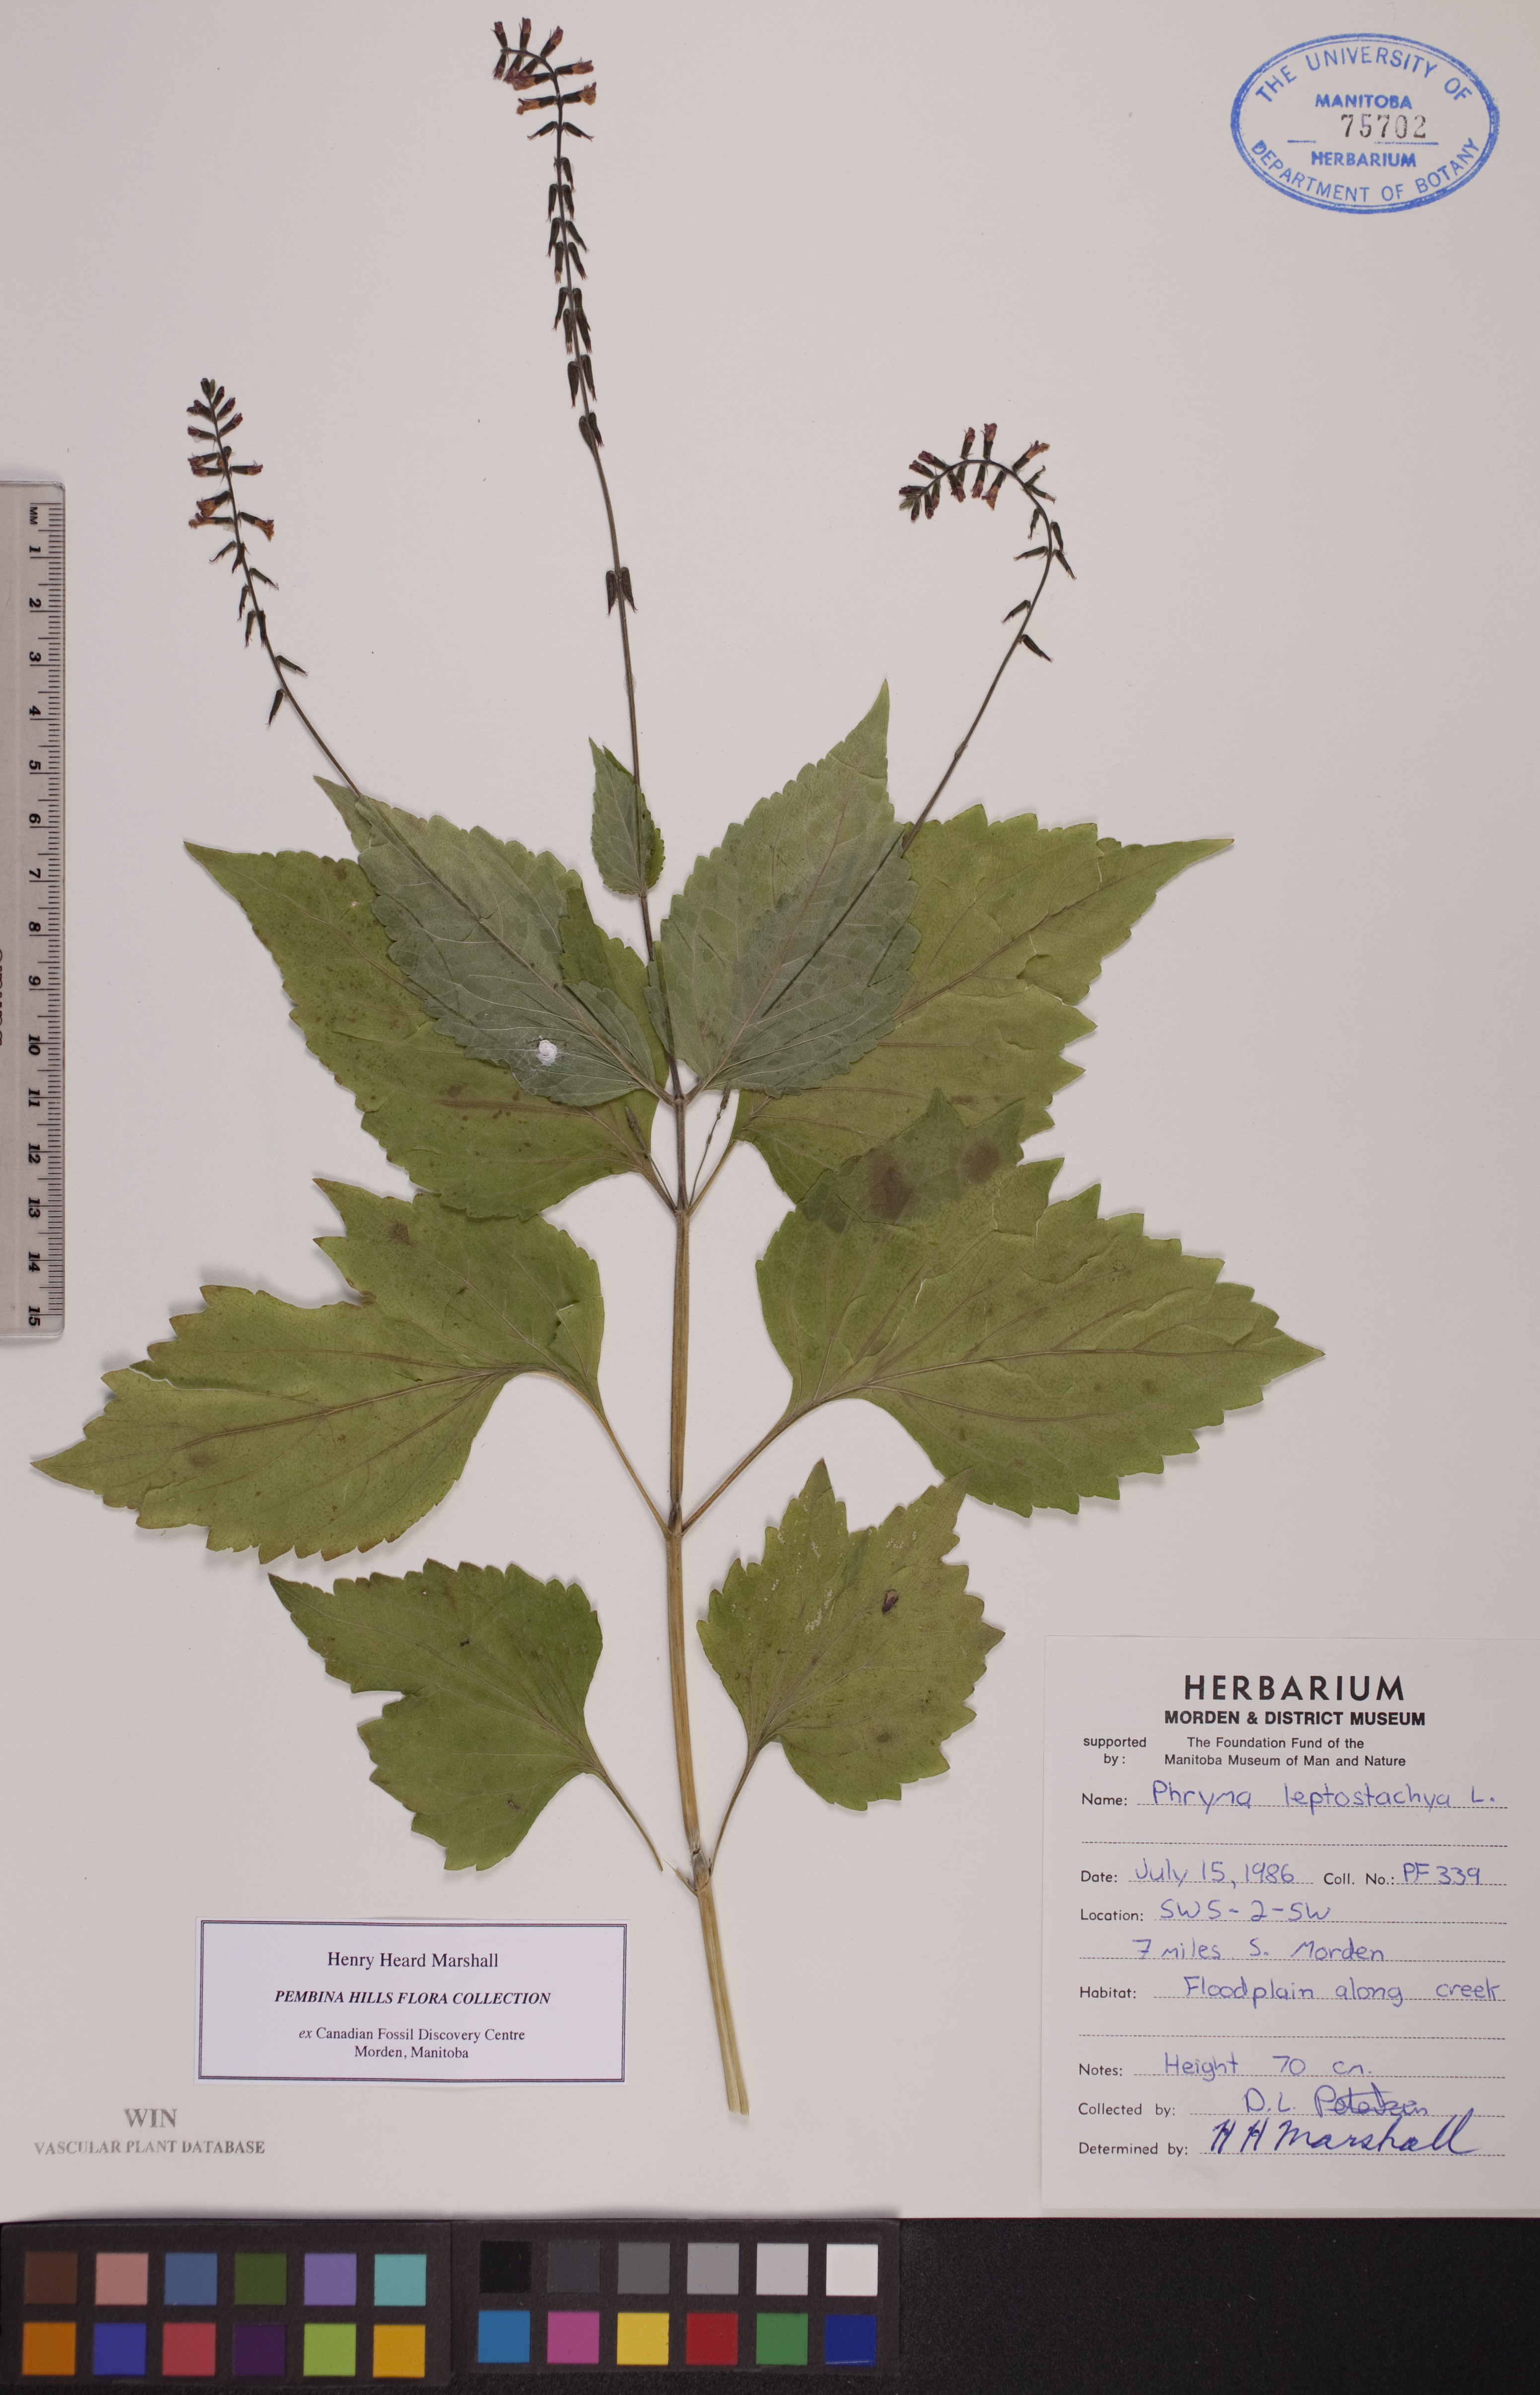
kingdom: Plantae
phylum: Tracheophyta
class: Magnoliopsida
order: Lamiales
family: Phrymaceae
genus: Phryma
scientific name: Phryma leptostachya
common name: American lopseed
